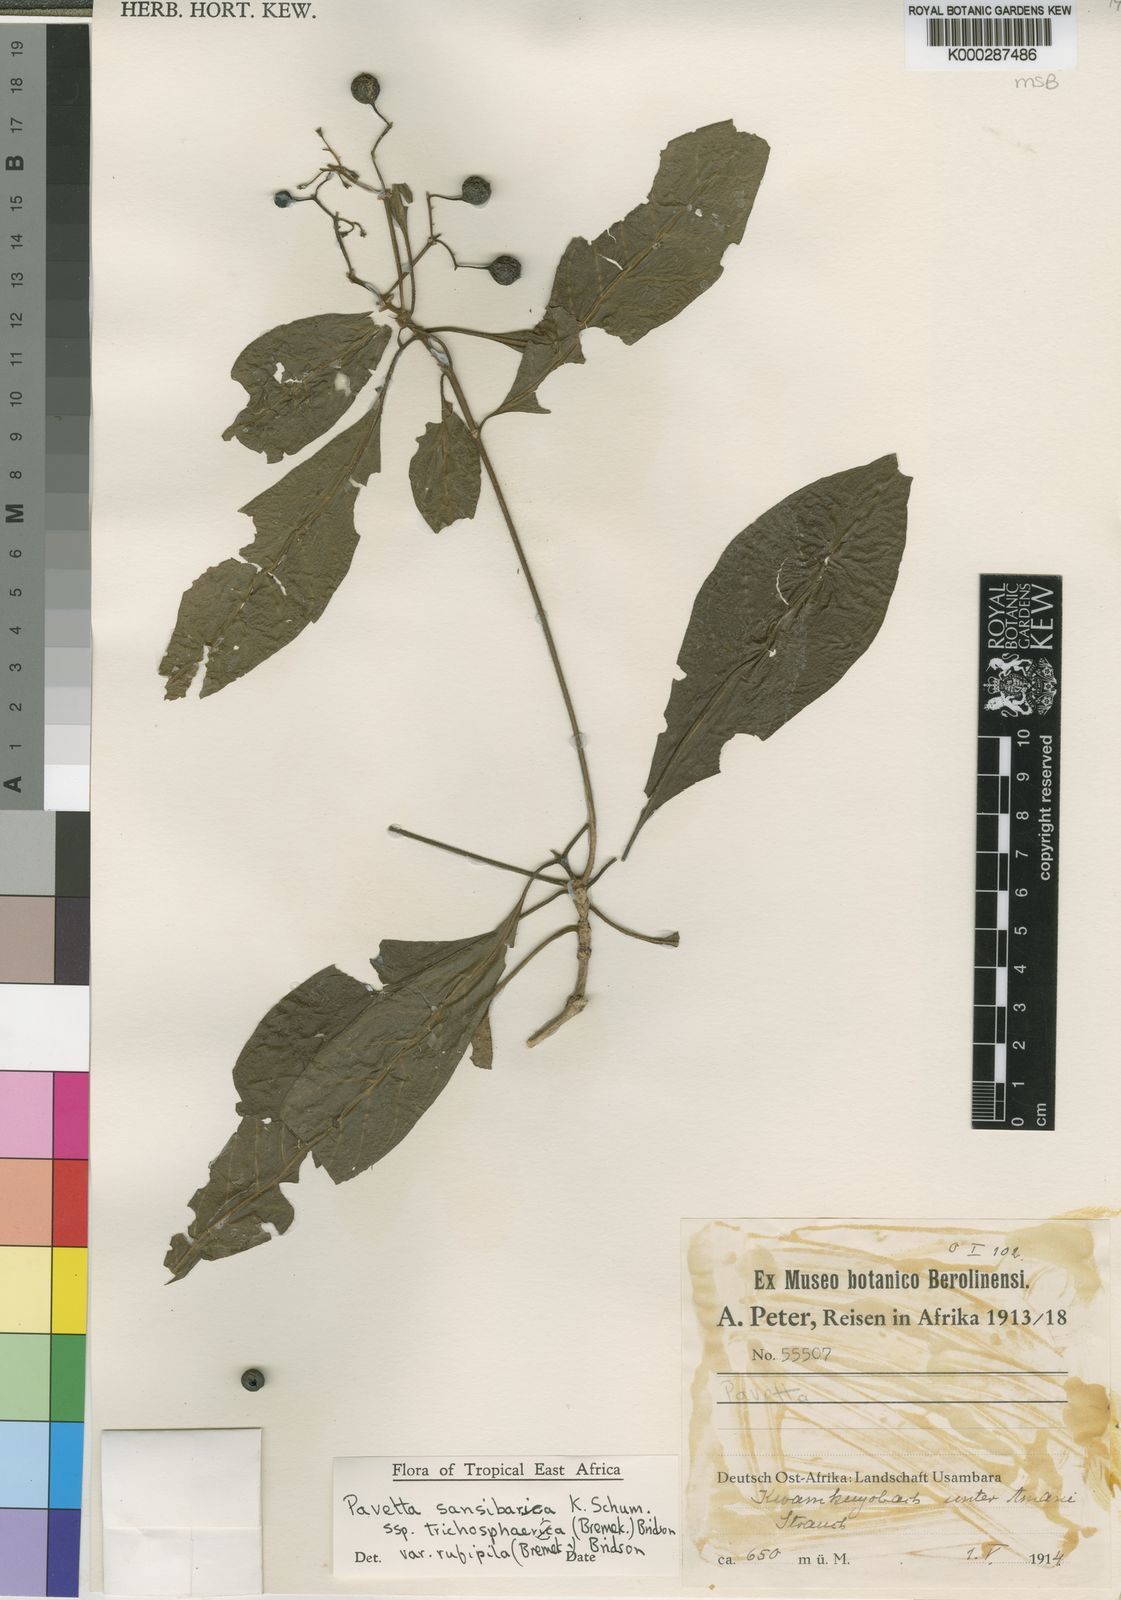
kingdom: Plantae
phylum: Tracheophyta
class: Magnoliopsida
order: Gentianales
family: Rubiaceae
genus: Pavetta
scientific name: Pavetta sansibarica
